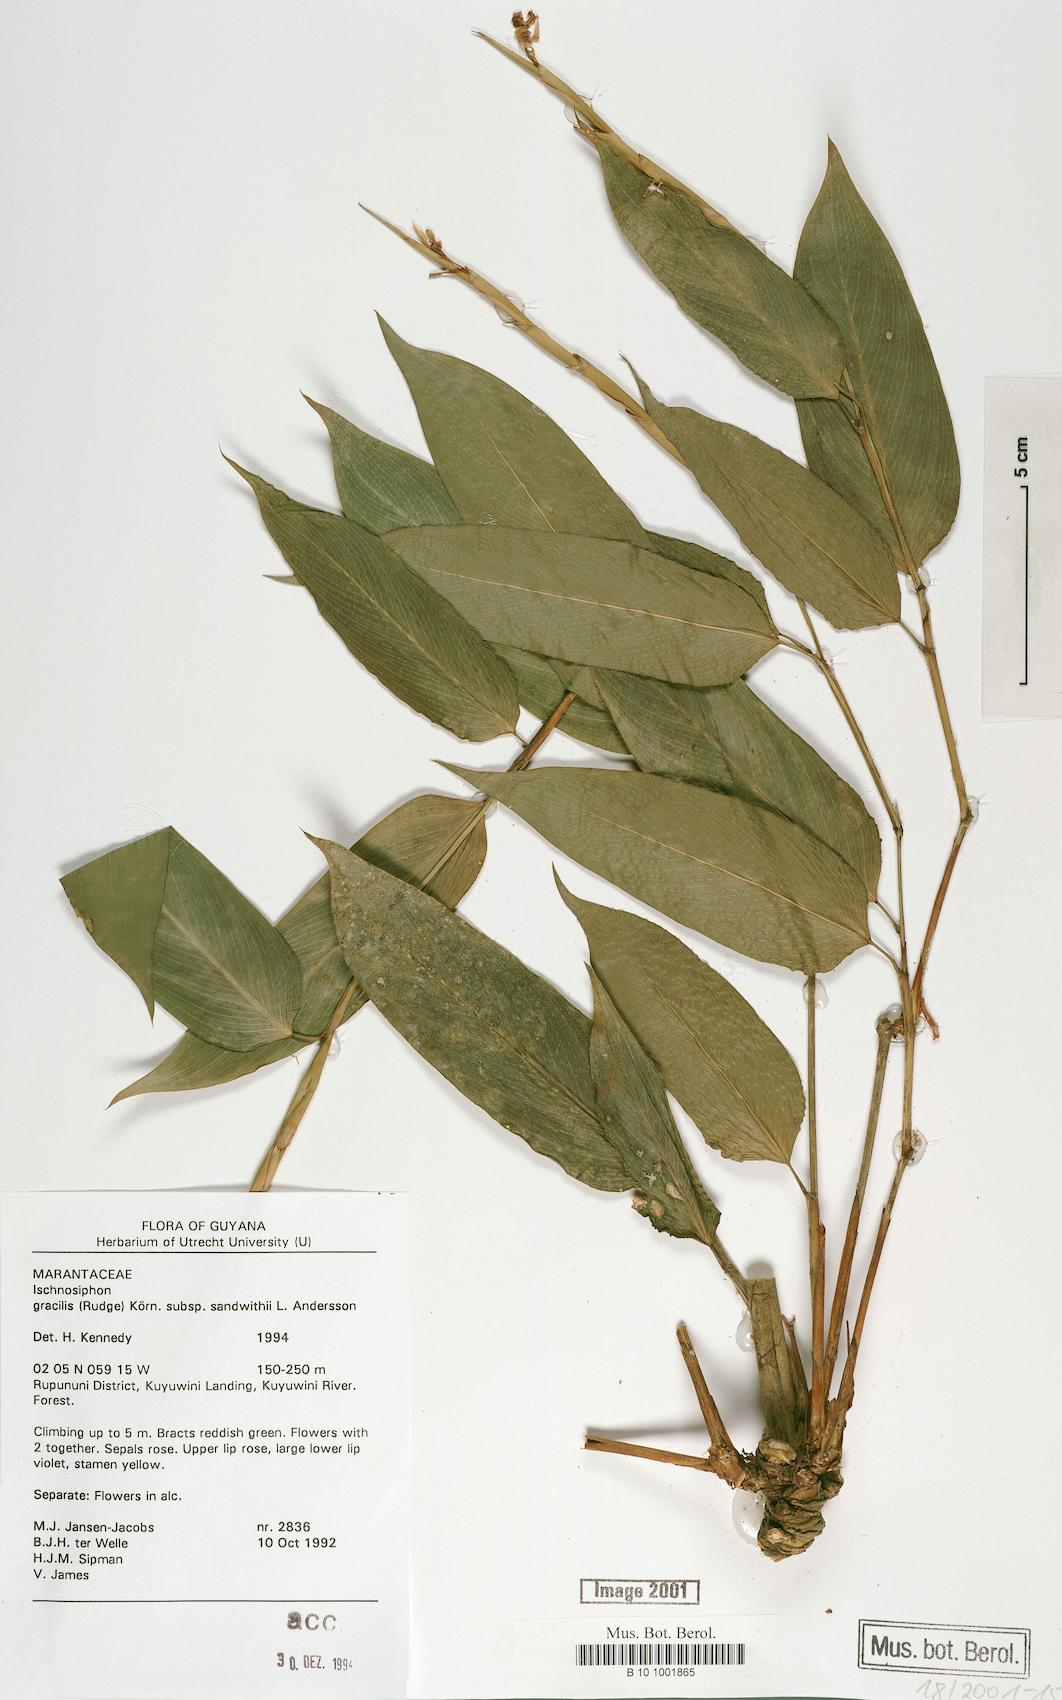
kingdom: Plantae
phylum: Tracheophyta
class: Liliopsida
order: Zingiberales
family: Marantaceae
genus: Ischnosiphon
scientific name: Ischnosiphon gracilis
